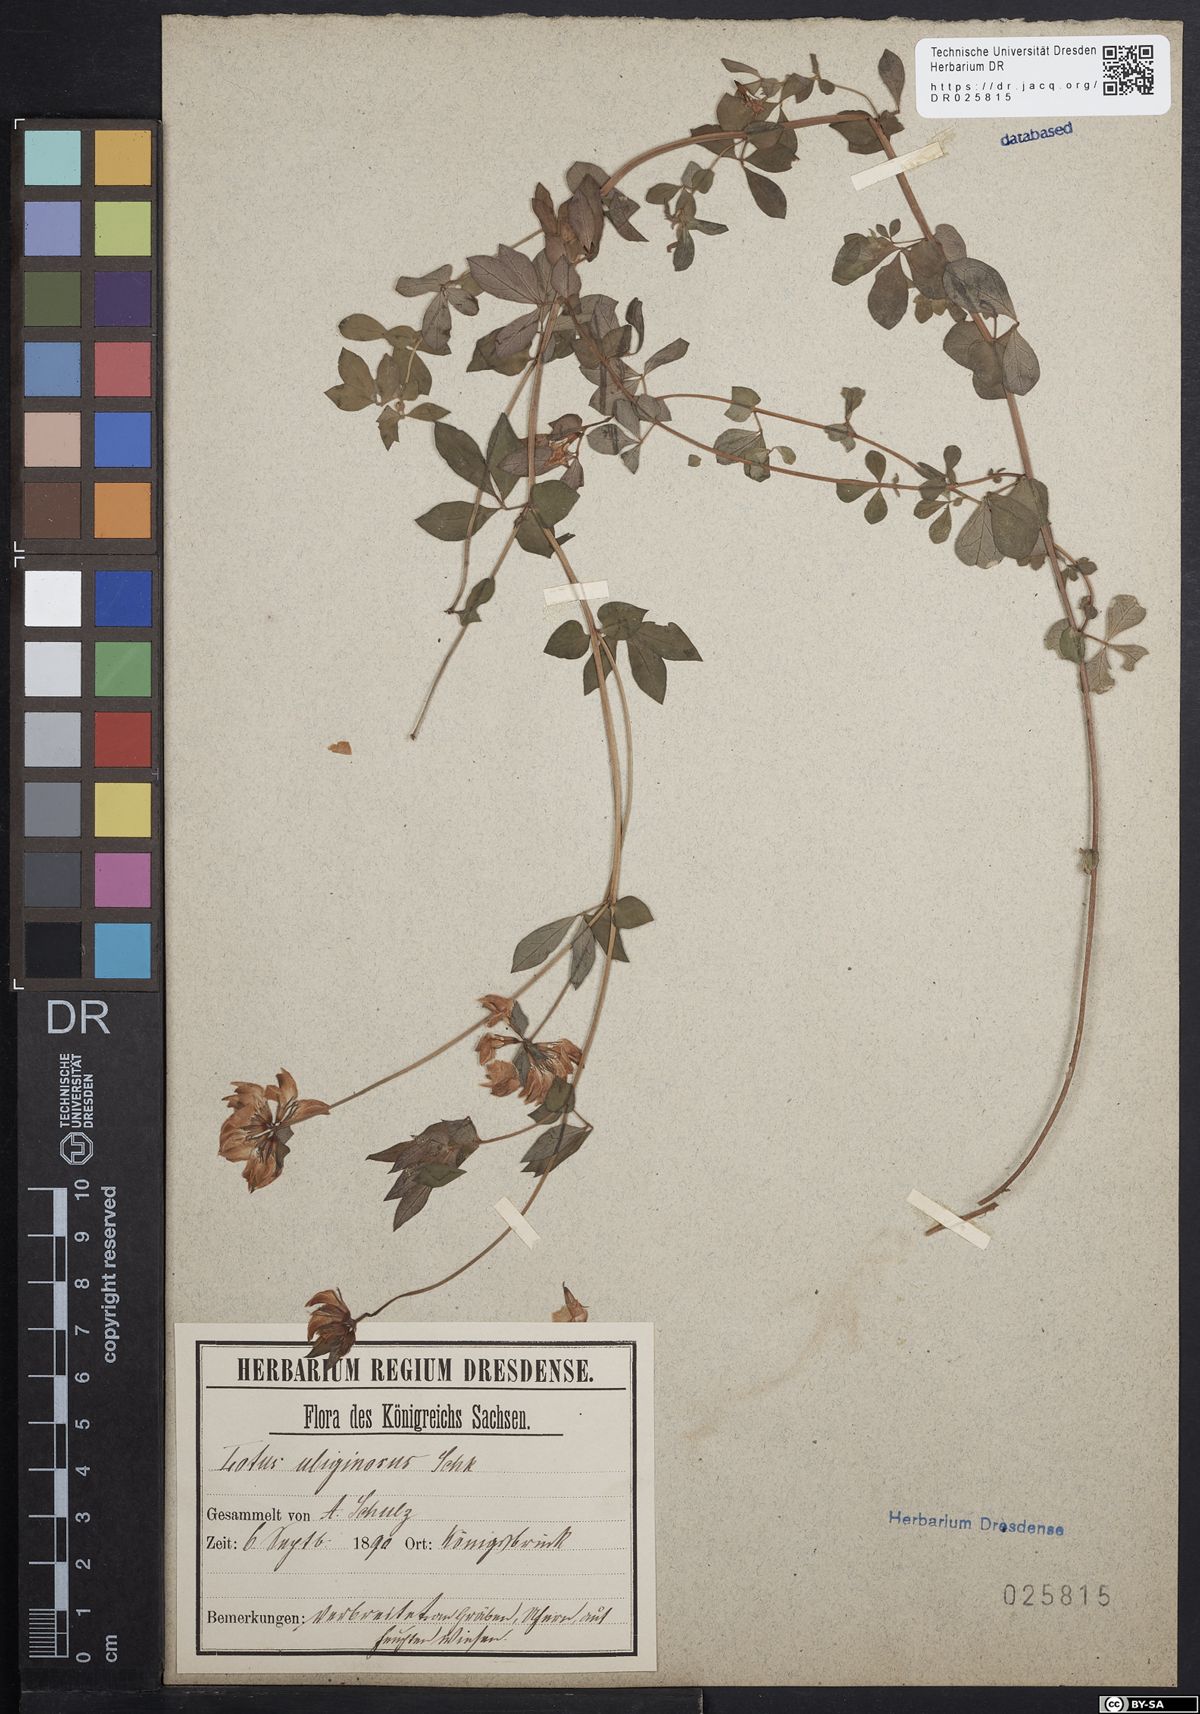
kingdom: Plantae
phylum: Tracheophyta
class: Magnoliopsida
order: Fabales
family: Fabaceae
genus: Lotus
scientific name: Lotus pedunculatus
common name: Greater birdsfoot-trefoil
